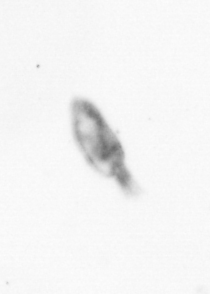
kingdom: Animalia
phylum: Arthropoda
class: Copepoda
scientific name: Copepoda
